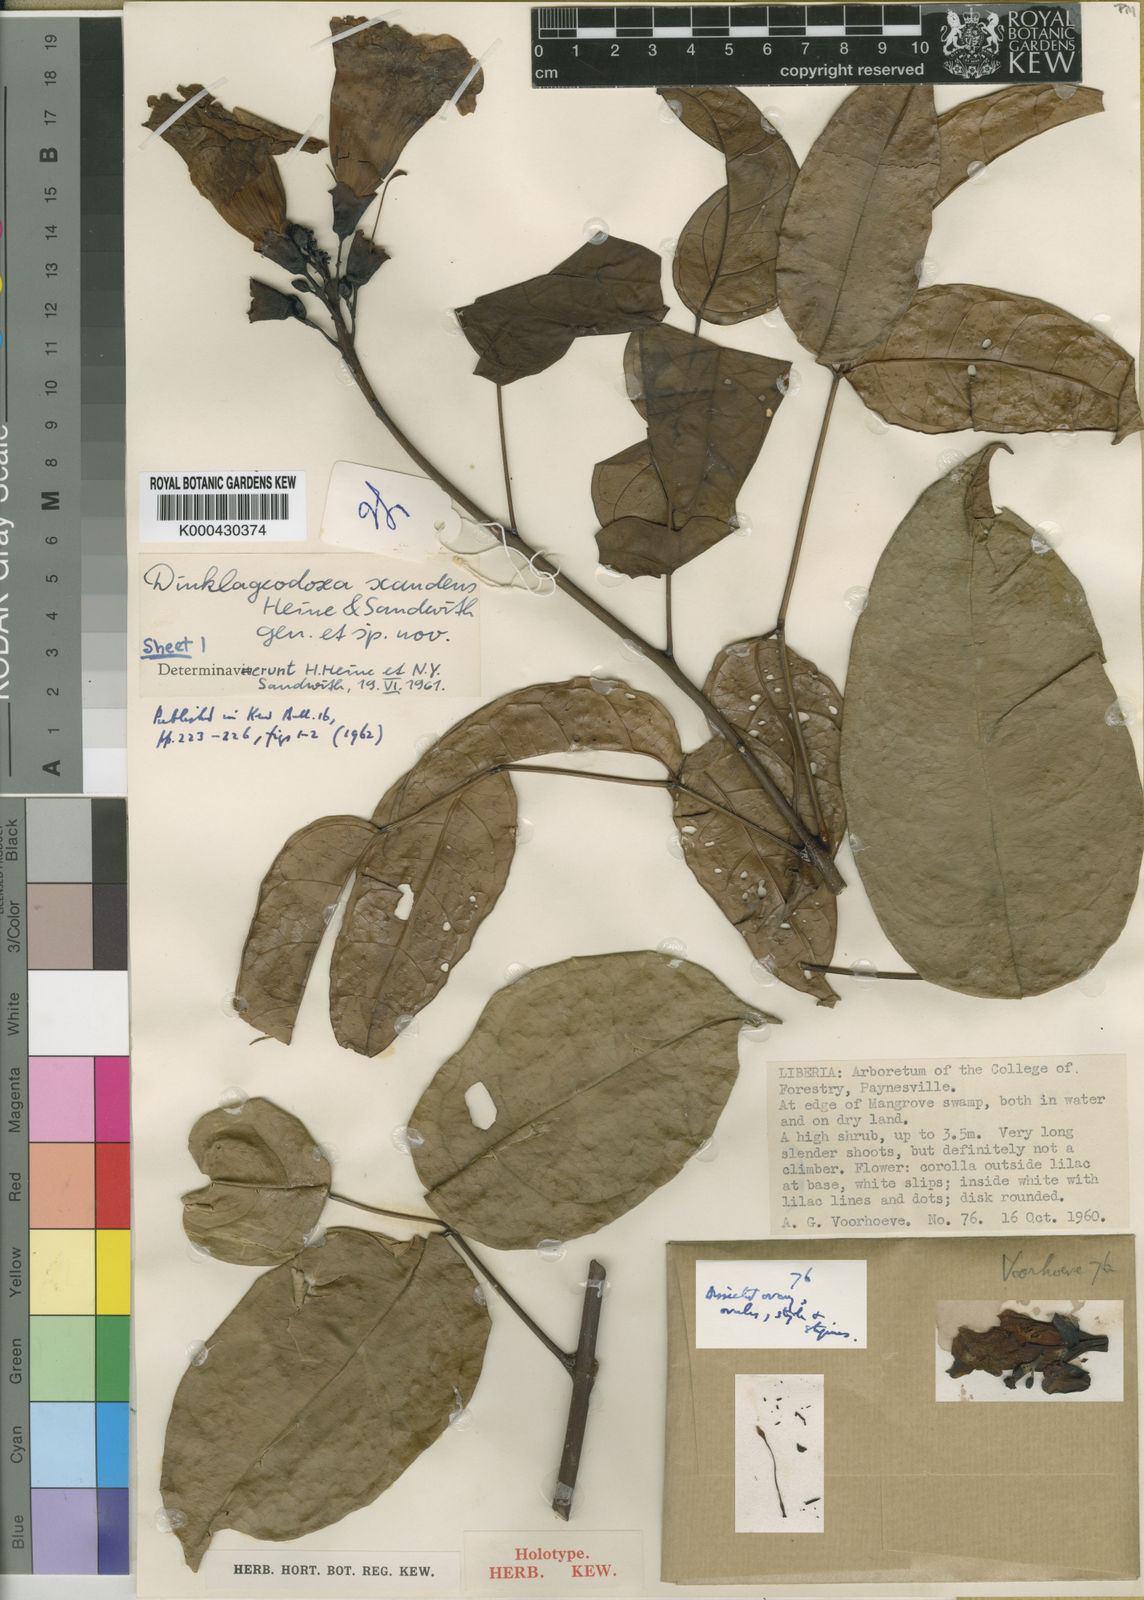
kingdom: Plantae
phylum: Tracheophyta
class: Magnoliopsida
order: Lamiales
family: Bignoniaceae
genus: Dinklageodoxa
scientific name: Dinklageodoxa scandens
